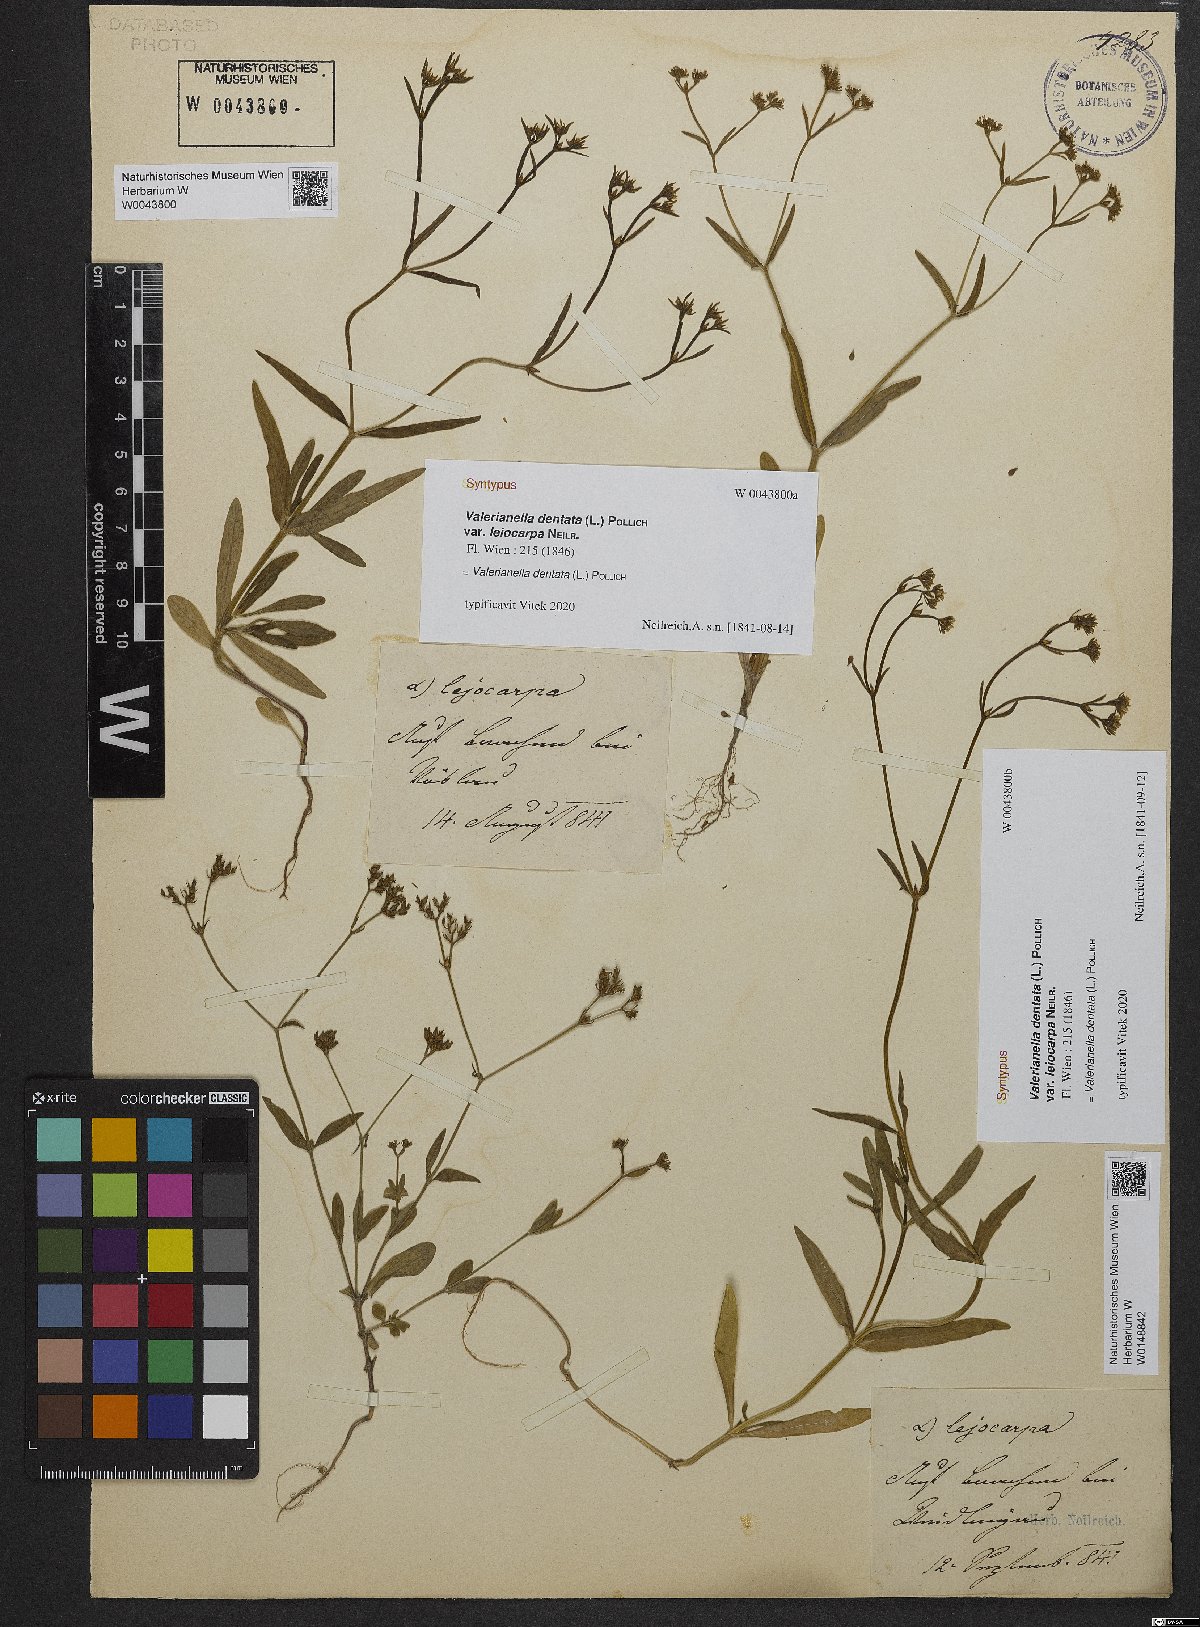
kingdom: Plantae
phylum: Tracheophyta
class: Magnoliopsida
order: Dipsacales
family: Caprifoliaceae
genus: Valerianella
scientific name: Valerianella dentata
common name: Narrow-fruited cornsalad
